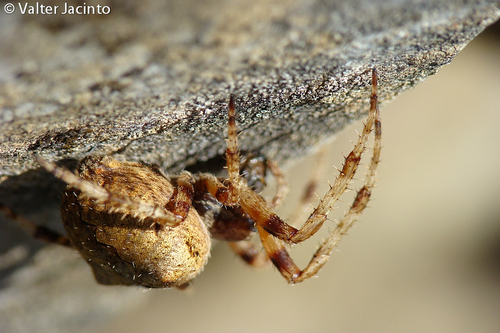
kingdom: Animalia
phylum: Arthropoda
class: Arachnida
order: Araneae
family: Araneidae
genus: Araneus
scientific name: Araneus angulatus
